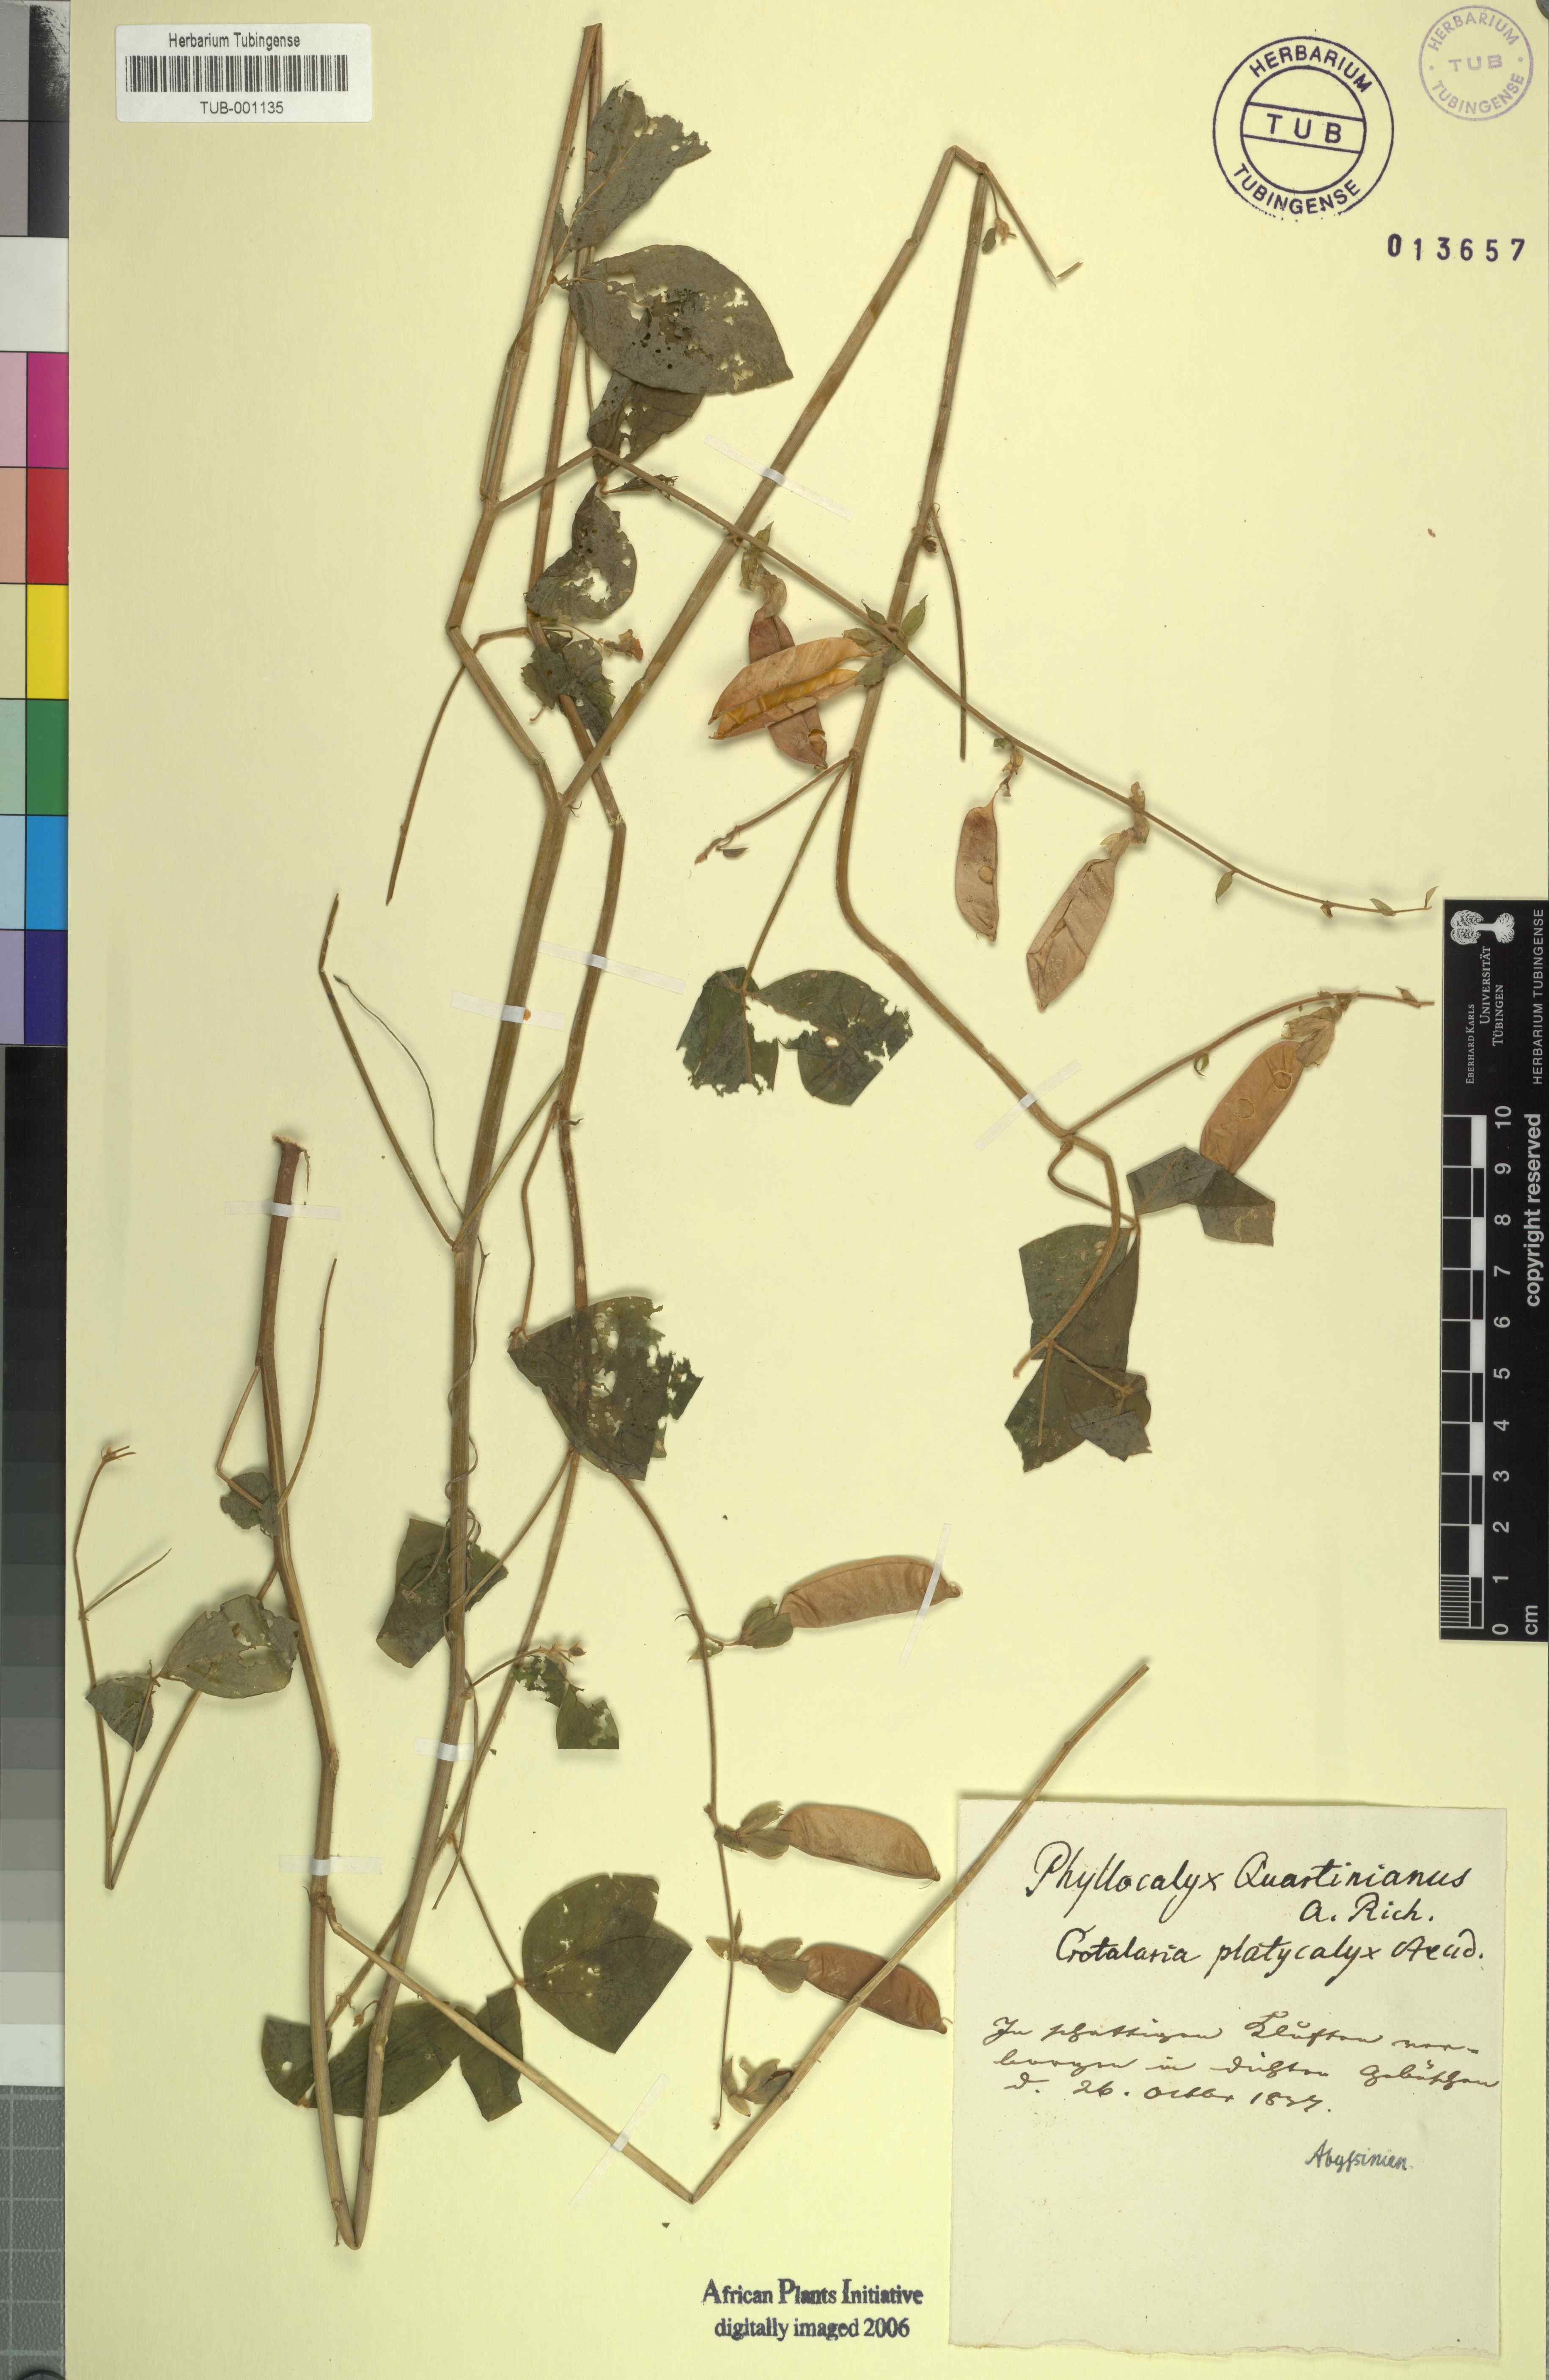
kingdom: Plantae
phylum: Tracheophyta
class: Magnoliopsida
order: Fabales
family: Fabaceae
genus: Crotalaria
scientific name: Crotalaria quartiniana
